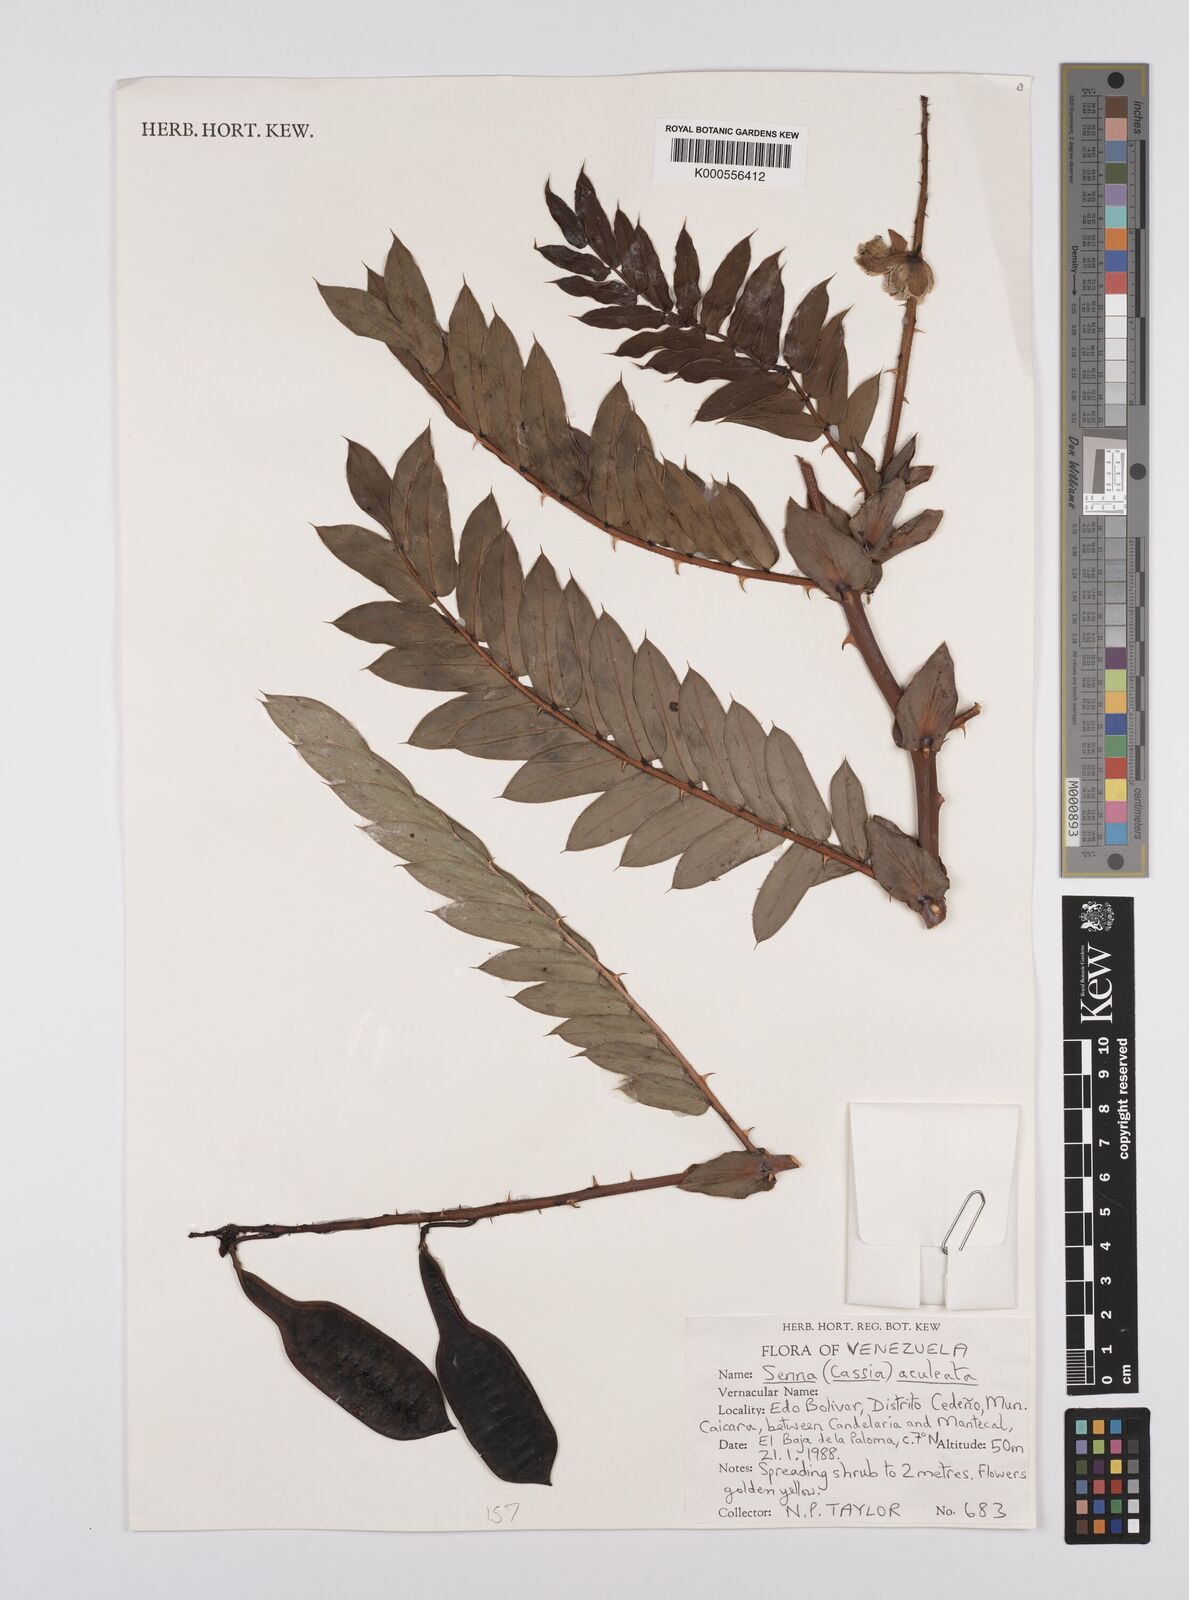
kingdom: Plantae
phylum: Tracheophyta
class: Magnoliopsida
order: Fabales
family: Fabaceae
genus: Senna
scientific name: Senna aculeata
